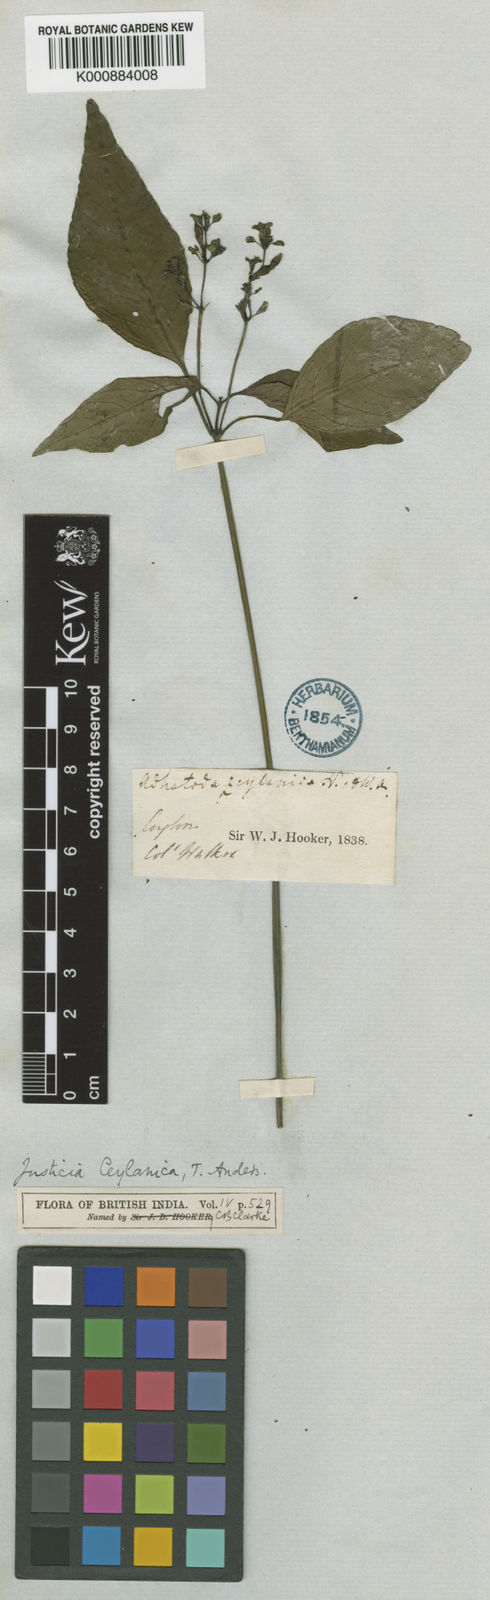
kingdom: Plantae
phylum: Tracheophyta
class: Magnoliopsida
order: Lamiales
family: Acanthaceae
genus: Justicia
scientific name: Justicia ceylanica
